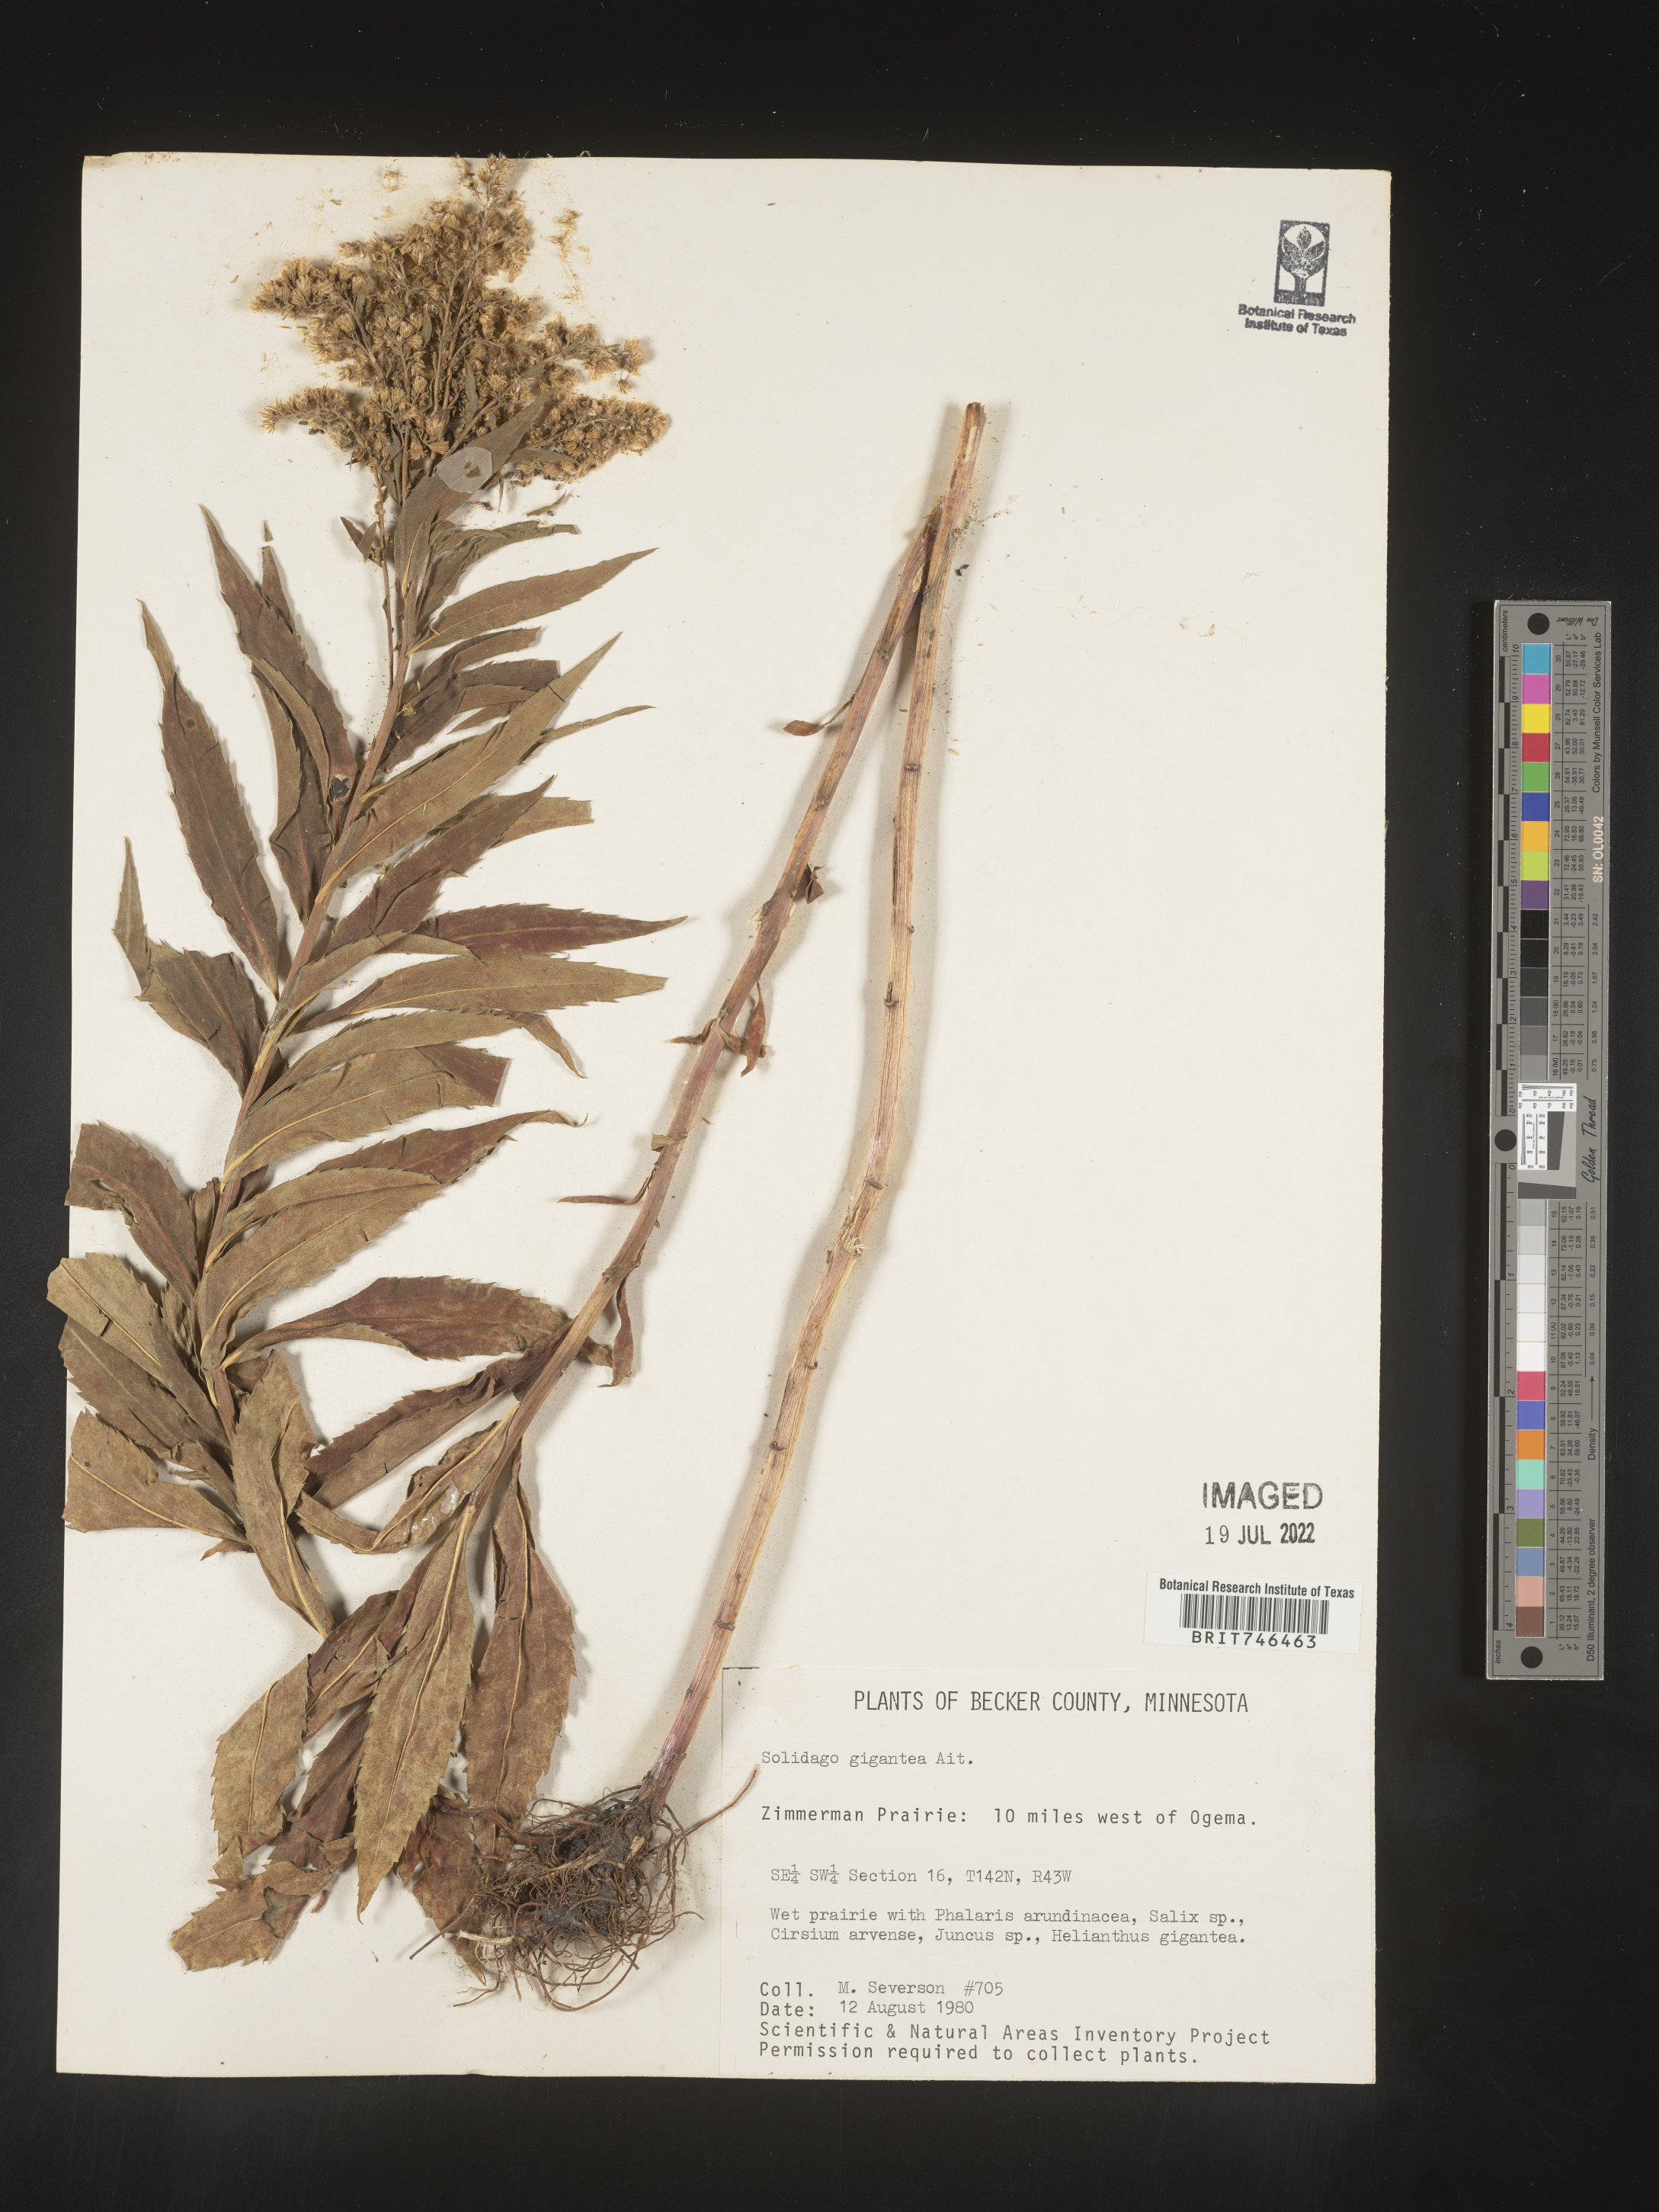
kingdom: Plantae
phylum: Tracheophyta
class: Magnoliopsida
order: Asterales
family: Asteraceae
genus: Solidago
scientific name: Solidago gigantea
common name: Giant goldenrod
